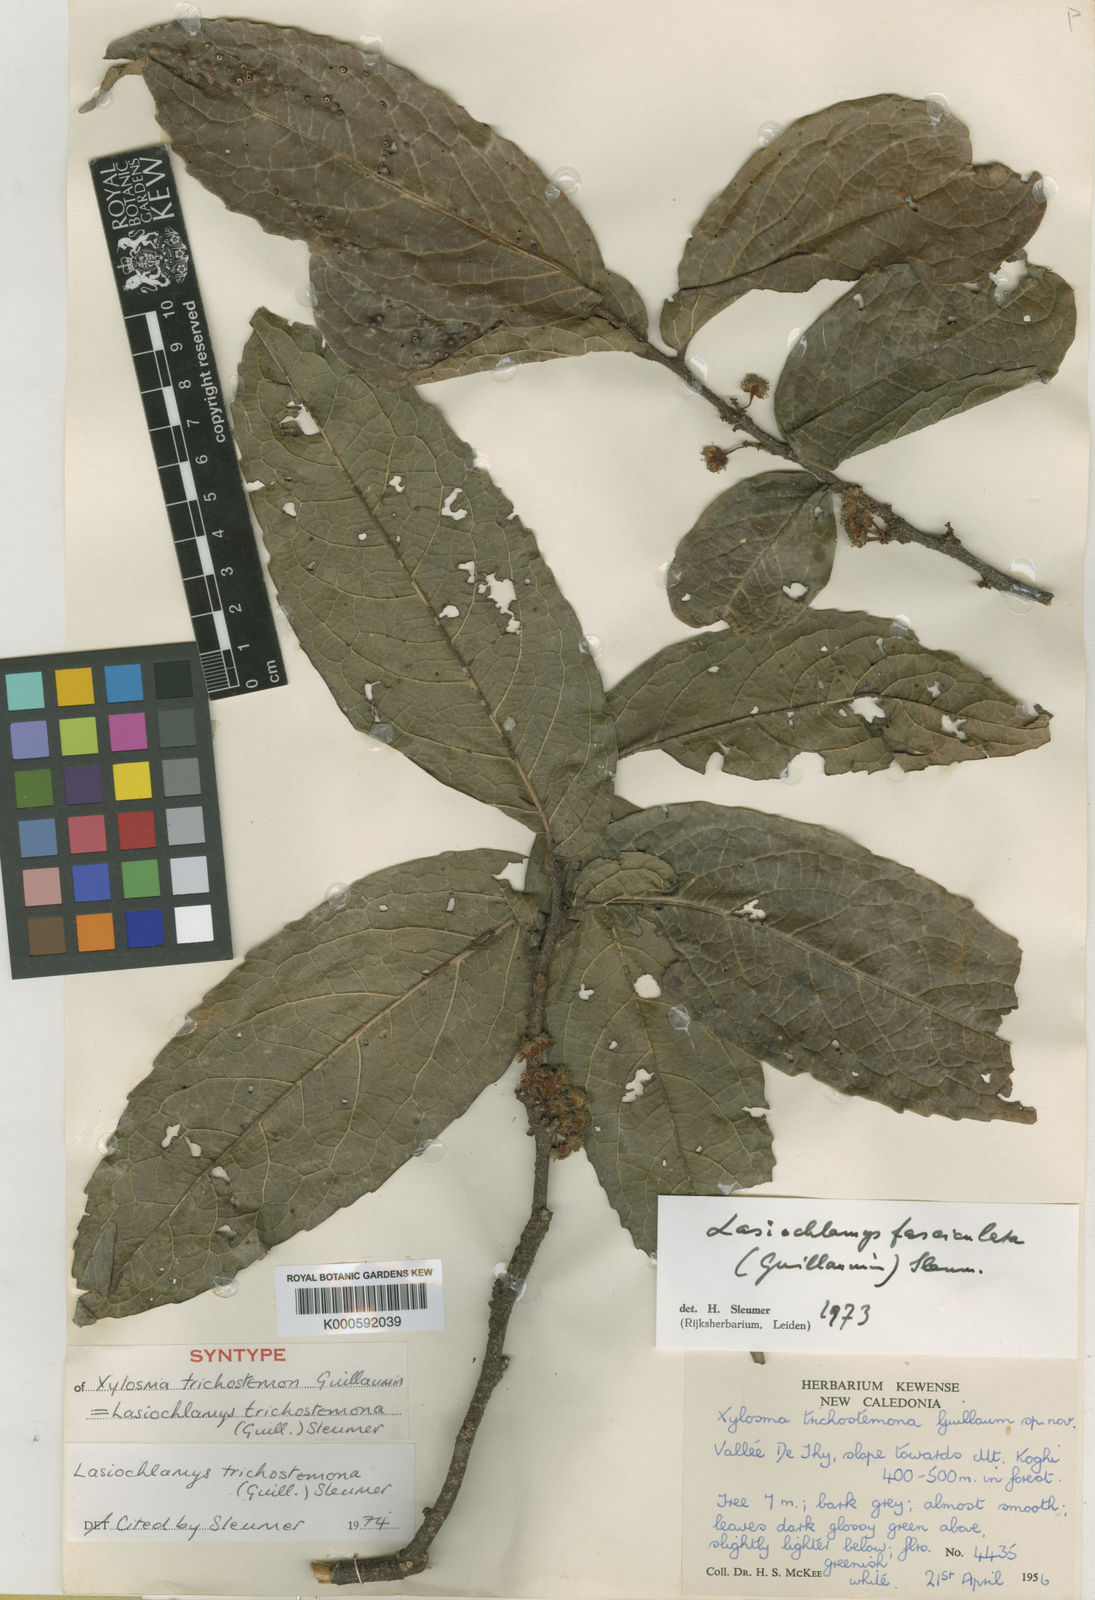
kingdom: Plantae
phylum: Tracheophyta
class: Magnoliopsida
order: Malpighiales
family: Salicaceae
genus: Lasiochlamys
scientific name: Lasiochlamys fasciculata
